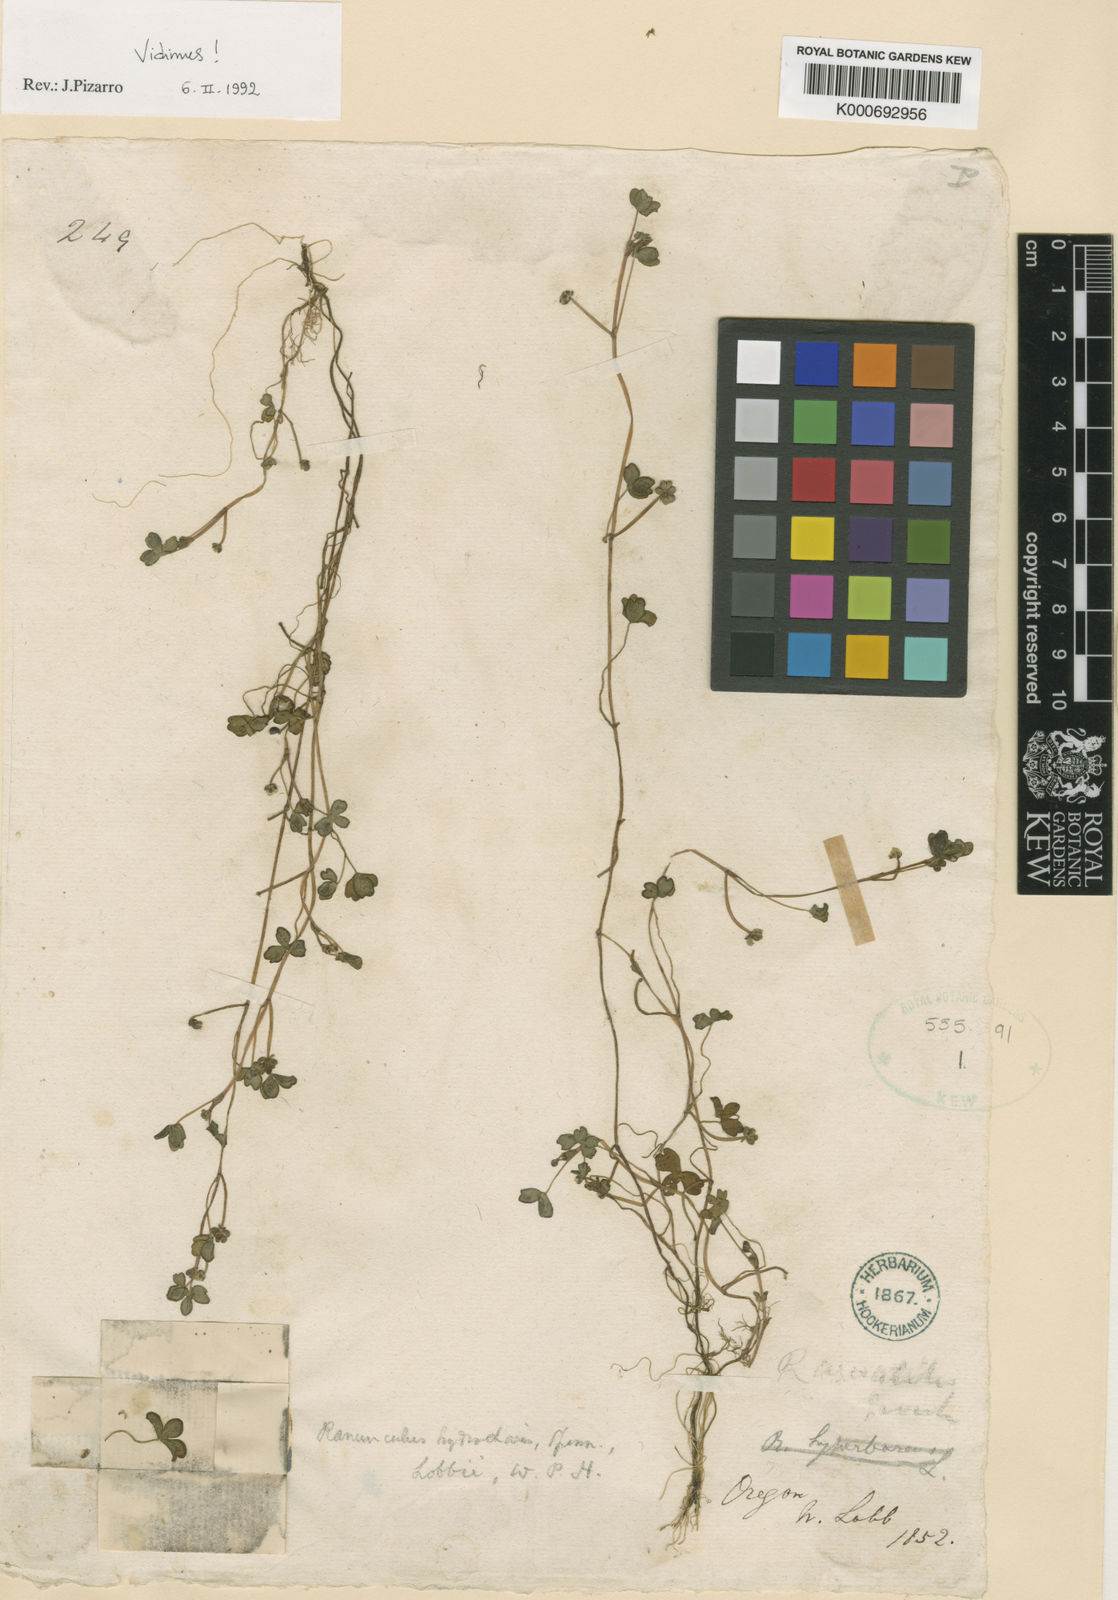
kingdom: Plantae
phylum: Tracheophyta
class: Magnoliopsida
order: Ranunculales
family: Ranunculaceae
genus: Ranunculus
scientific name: Ranunculus lobbii
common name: Lobb's buttercup
